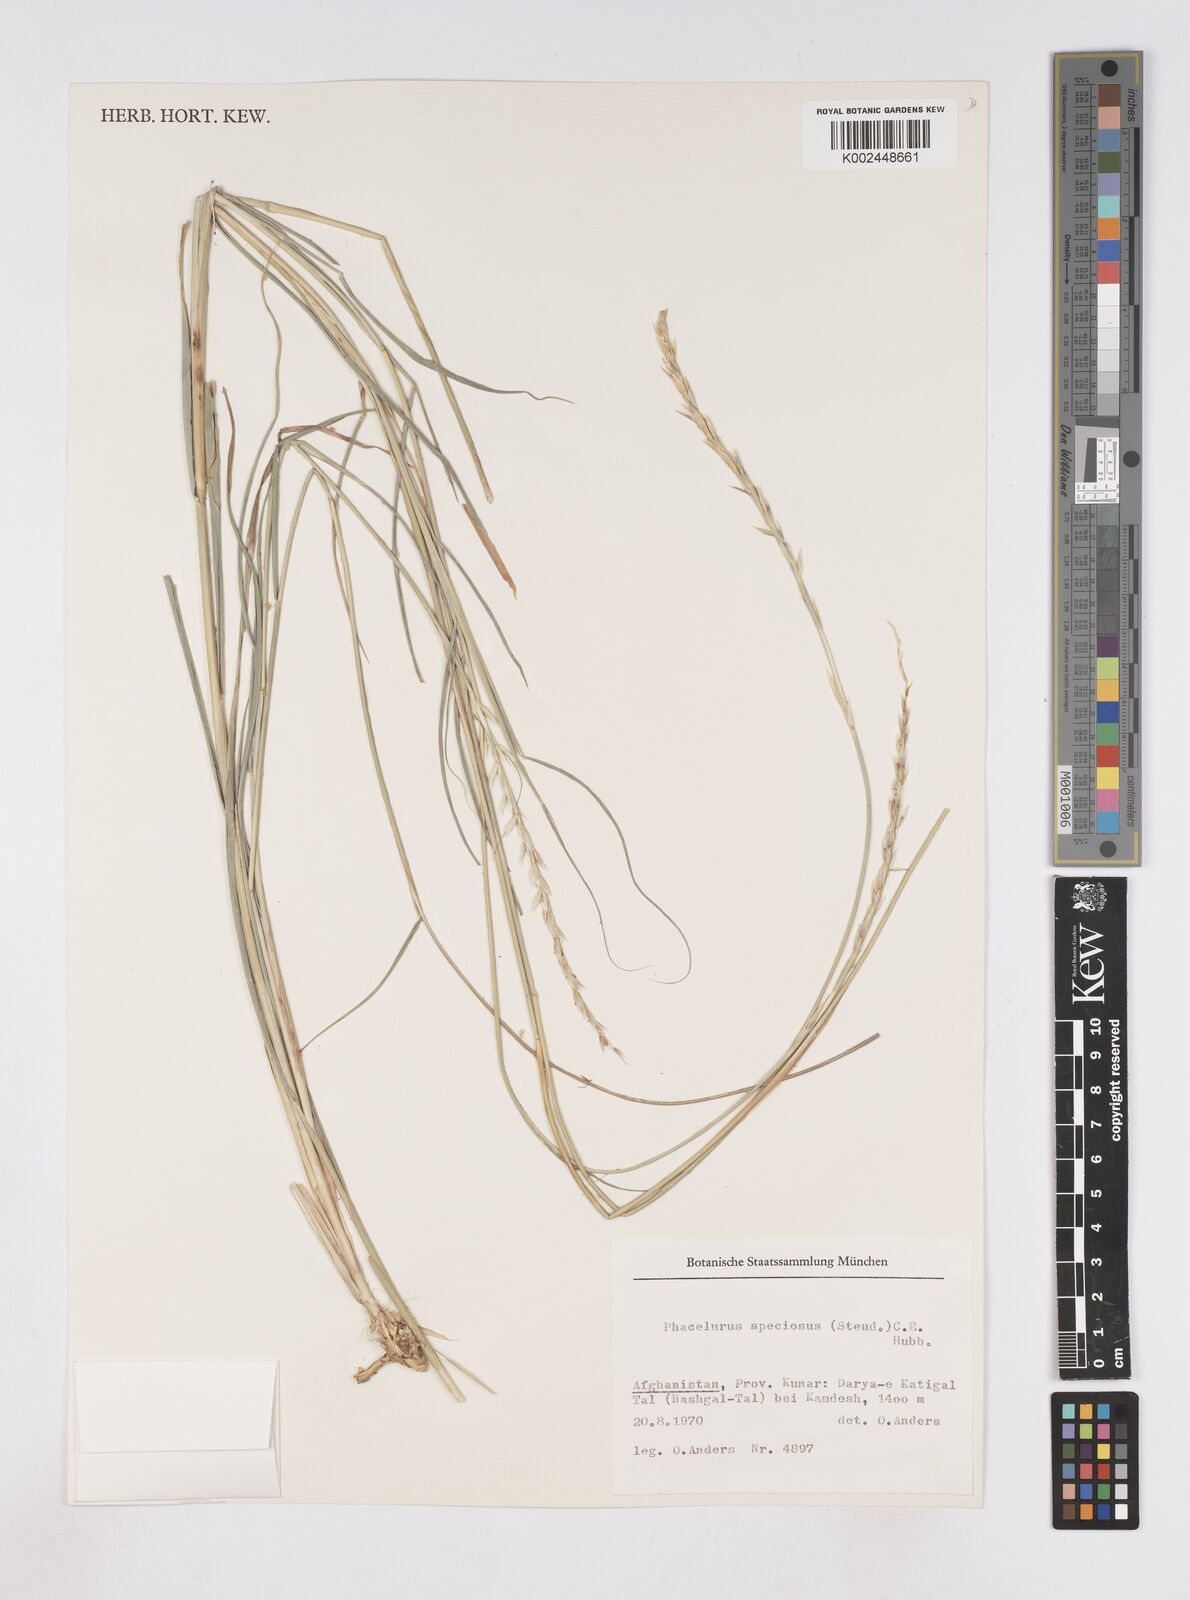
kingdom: Plantae
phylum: Tracheophyta
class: Liliopsida
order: Poales
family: Poaceae
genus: Phacelurus
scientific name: Phacelurus speciosus
